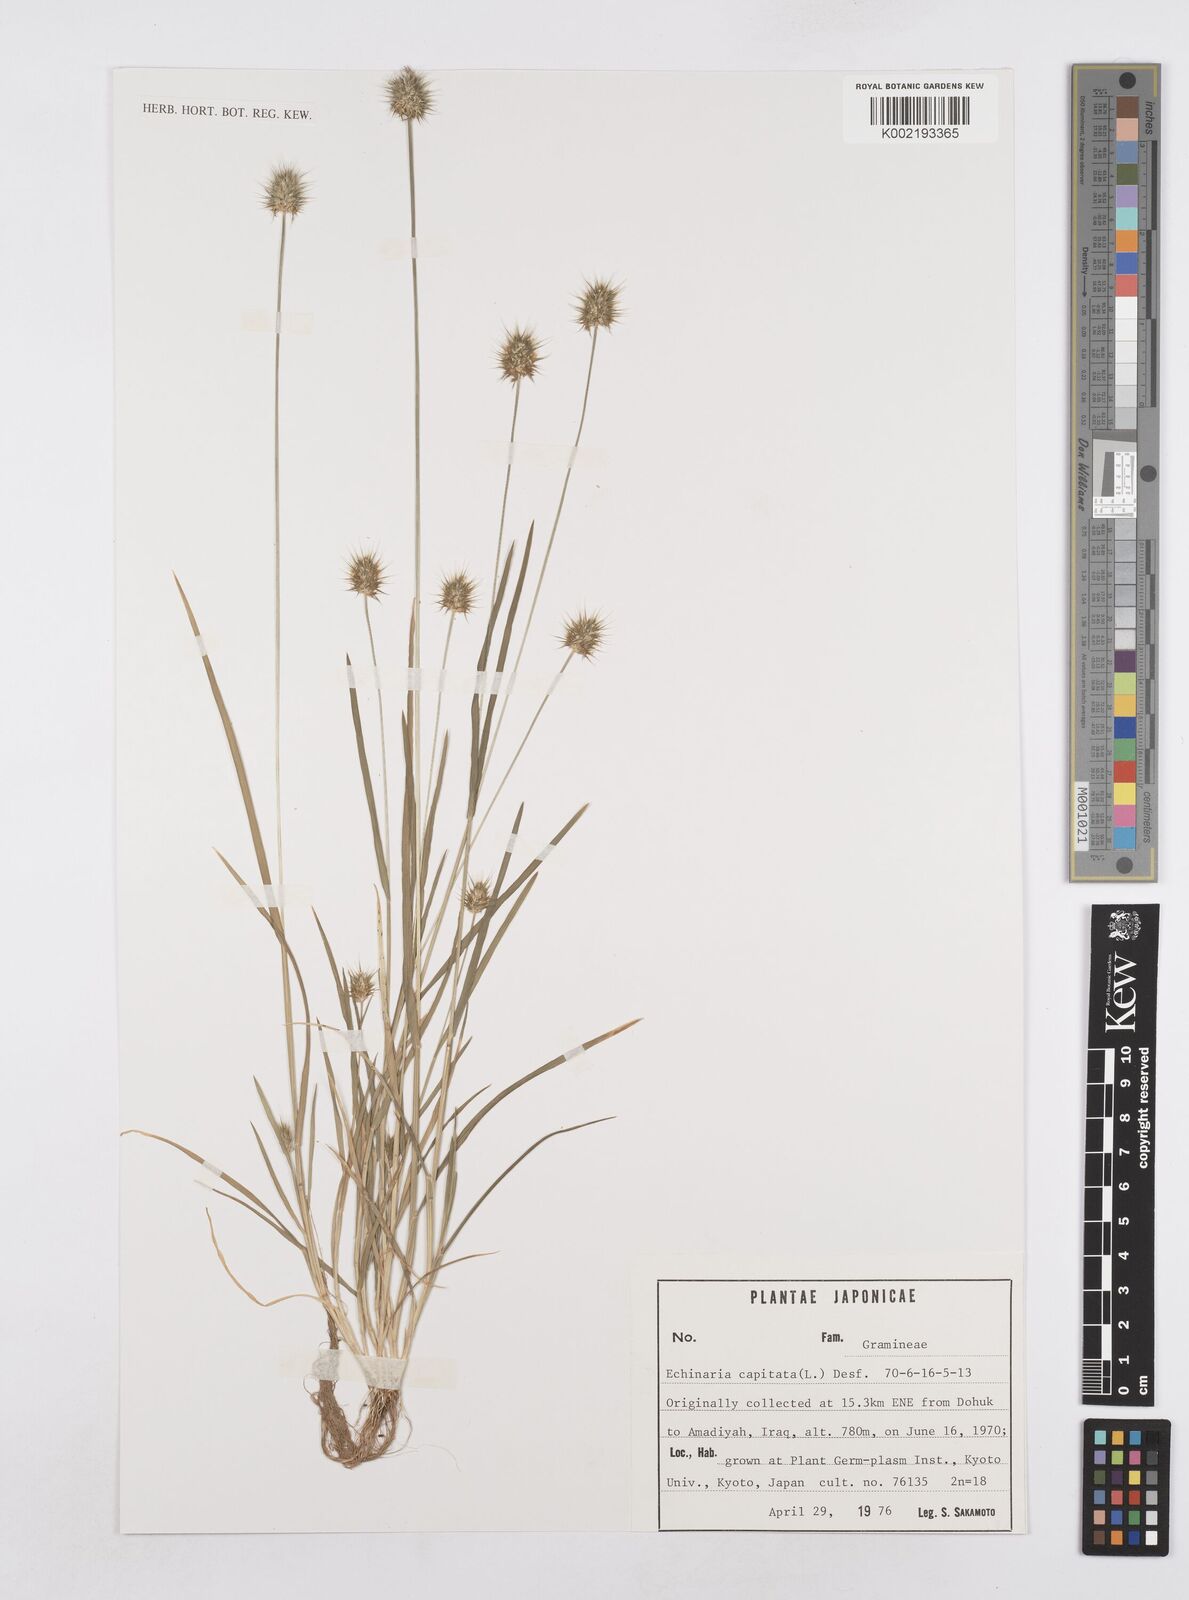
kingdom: Plantae
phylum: Tracheophyta
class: Liliopsida
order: Poales
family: Poaceae
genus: Echinaria
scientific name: Echinaria capitata
